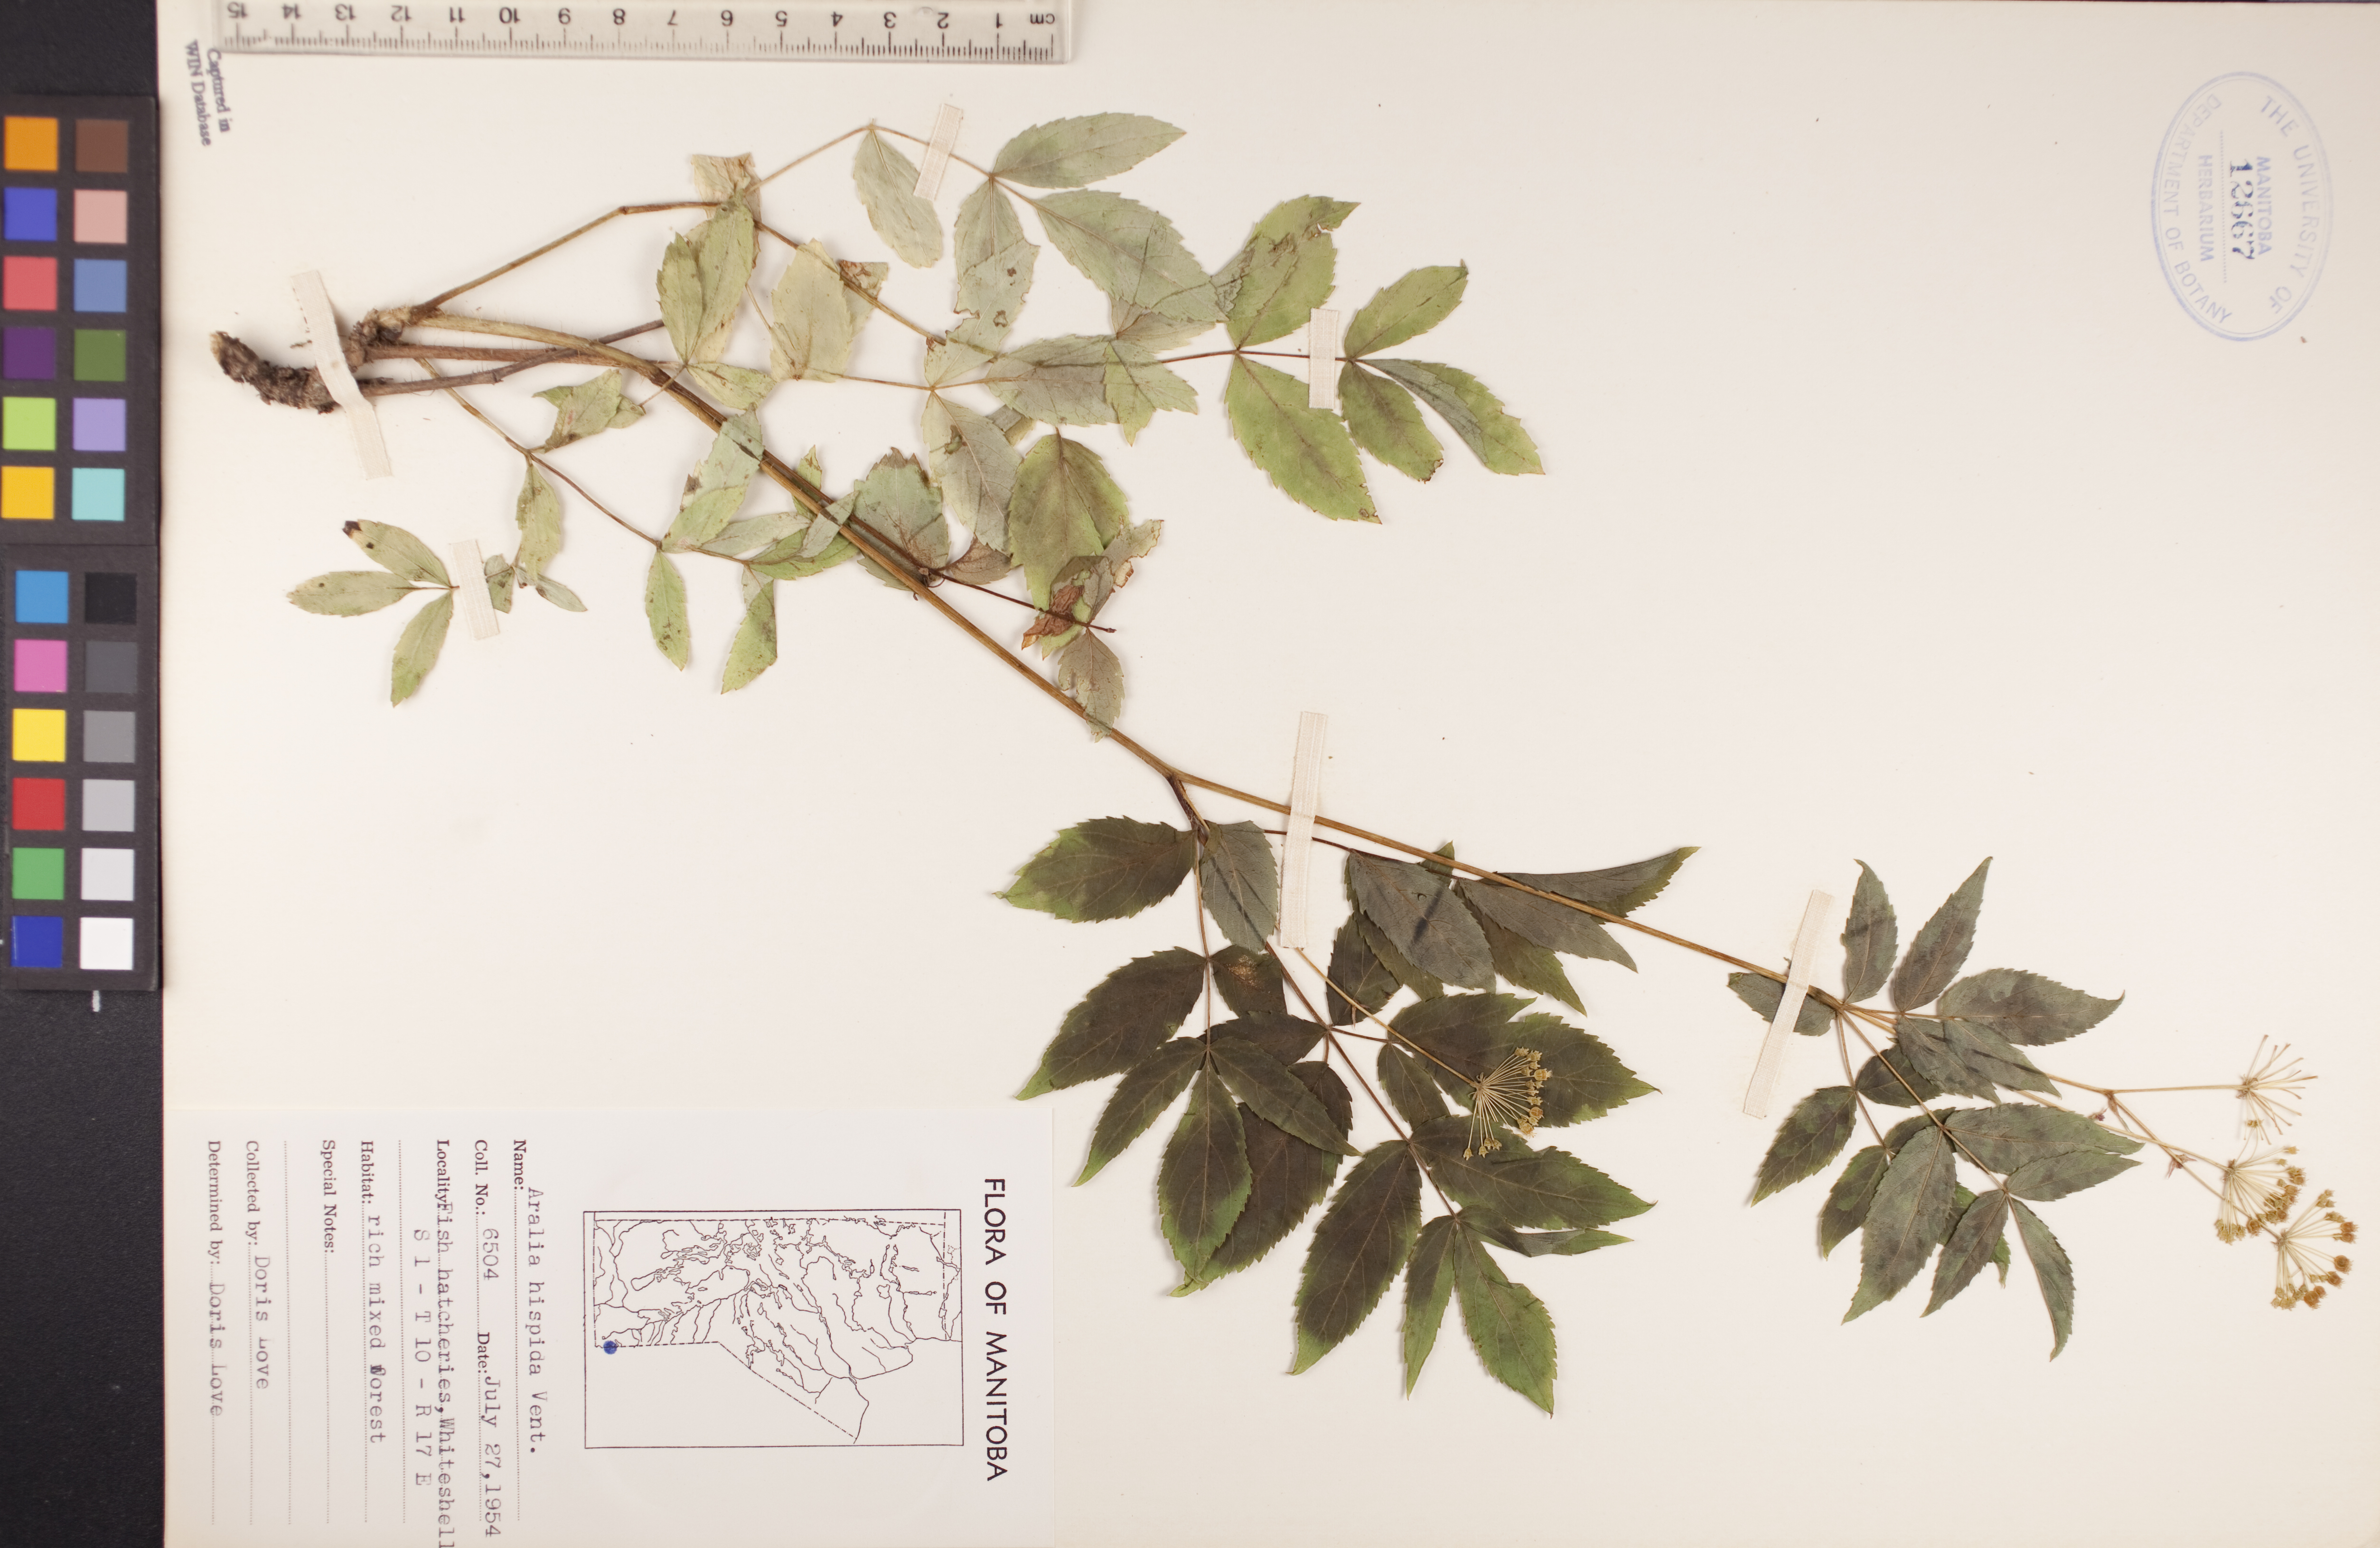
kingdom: Plantae
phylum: Tracheophyta
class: Magnoliopsida
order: Apiales
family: Araliaceae
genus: Aralia
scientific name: Aralia hispida
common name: Bristly sarsaparilla
